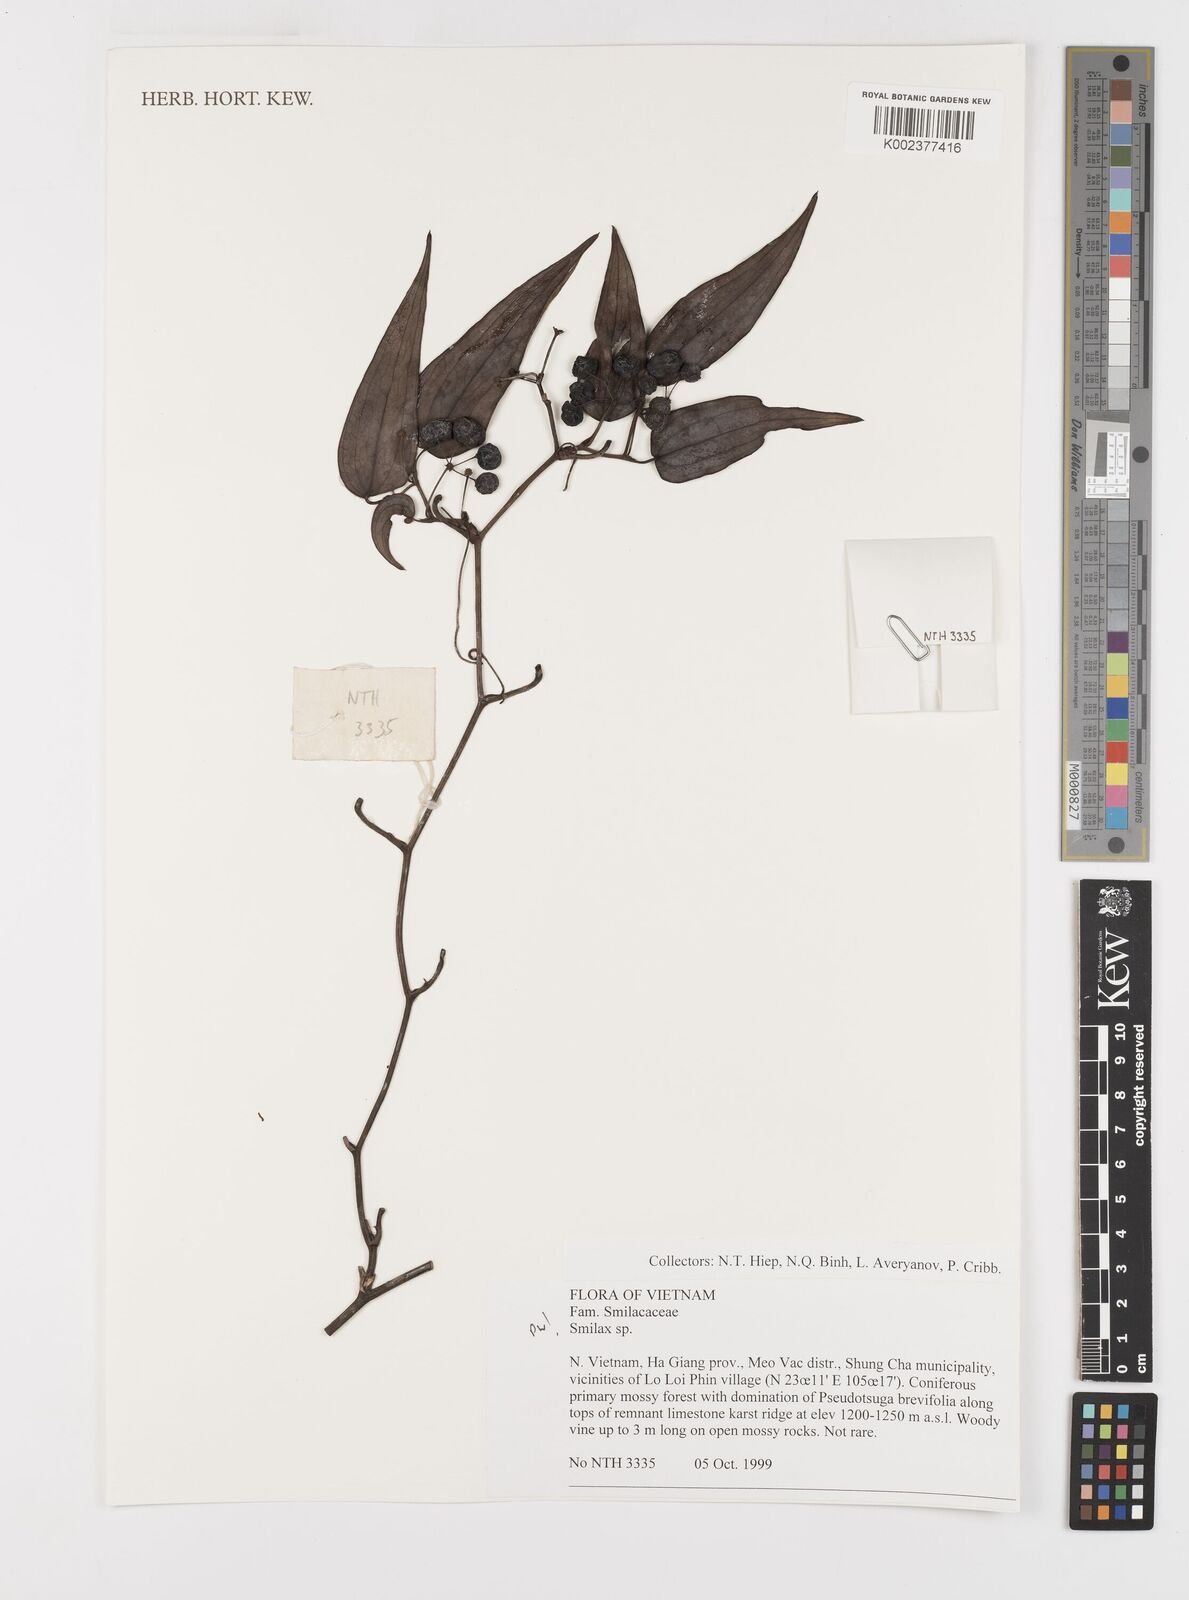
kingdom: Plantae
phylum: Tracheophyta
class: Liliopsida
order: Liliales
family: Smilacaceae
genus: Smilax
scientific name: Smilax
